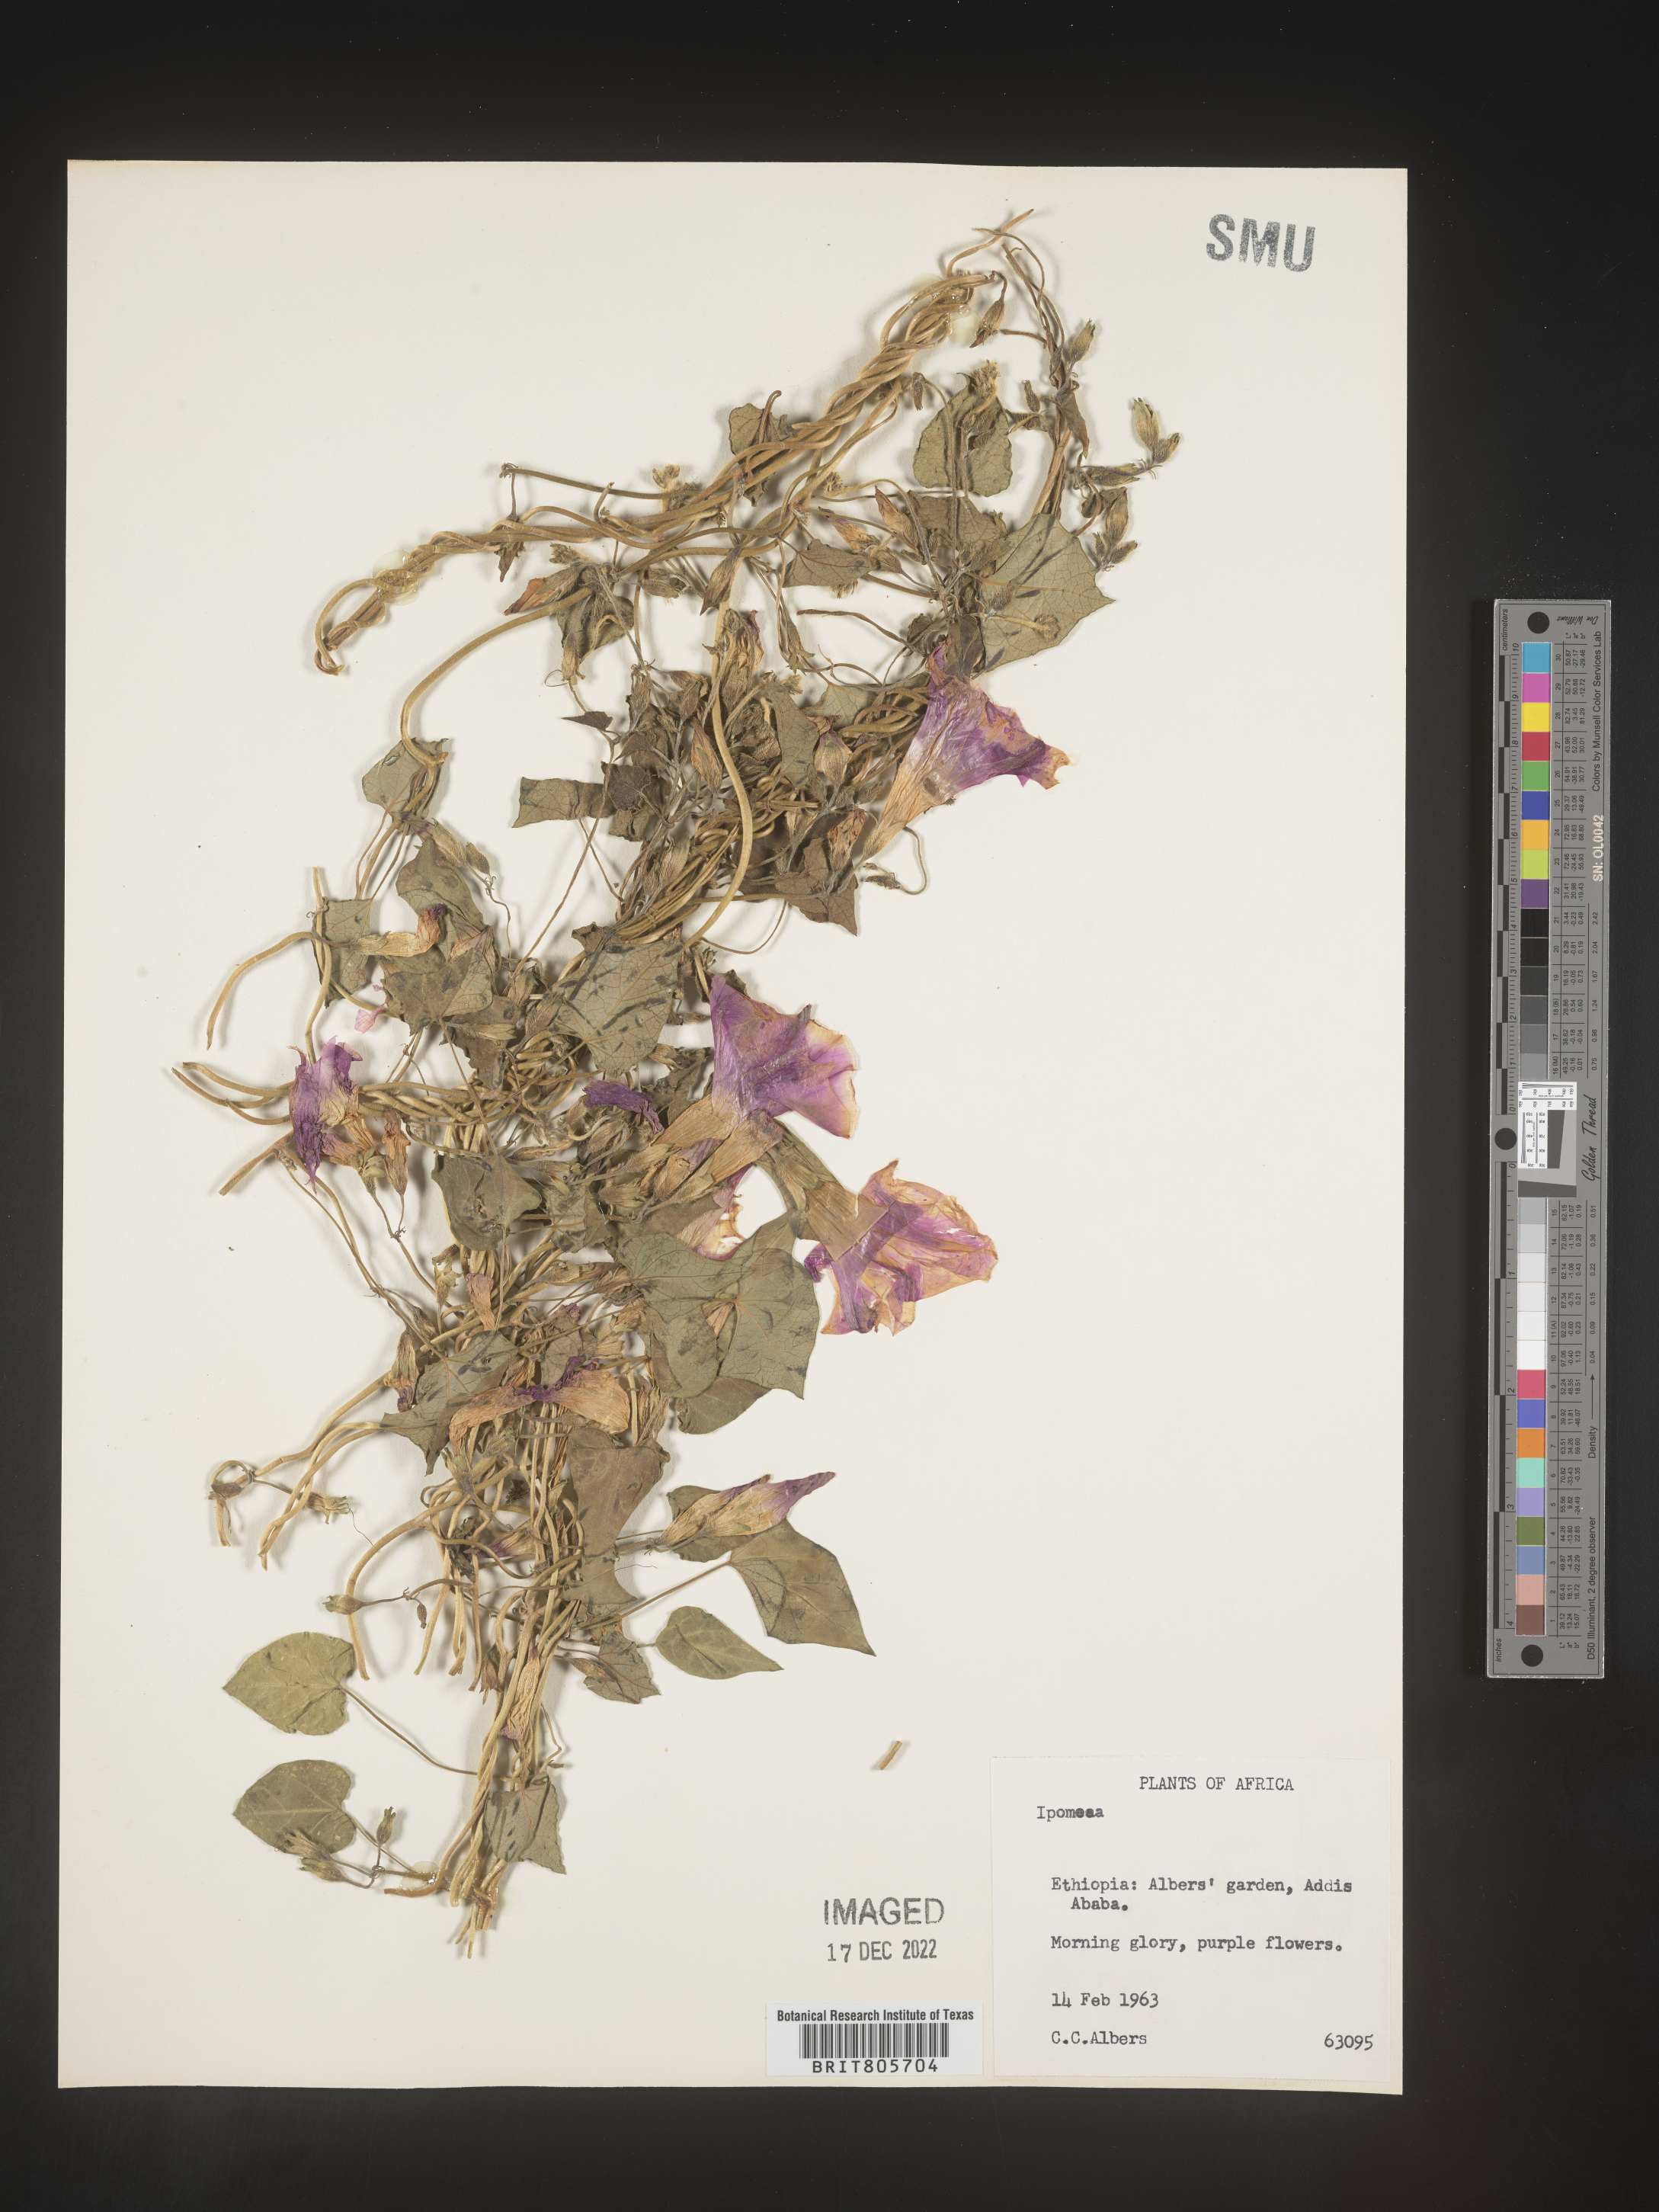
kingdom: Plantae
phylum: Tracheophyta
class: Magnoliopsida
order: Solanales
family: Convolvulaceae
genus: Ipomoea
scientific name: Ipomoea purpurea
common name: Common morning-glory
